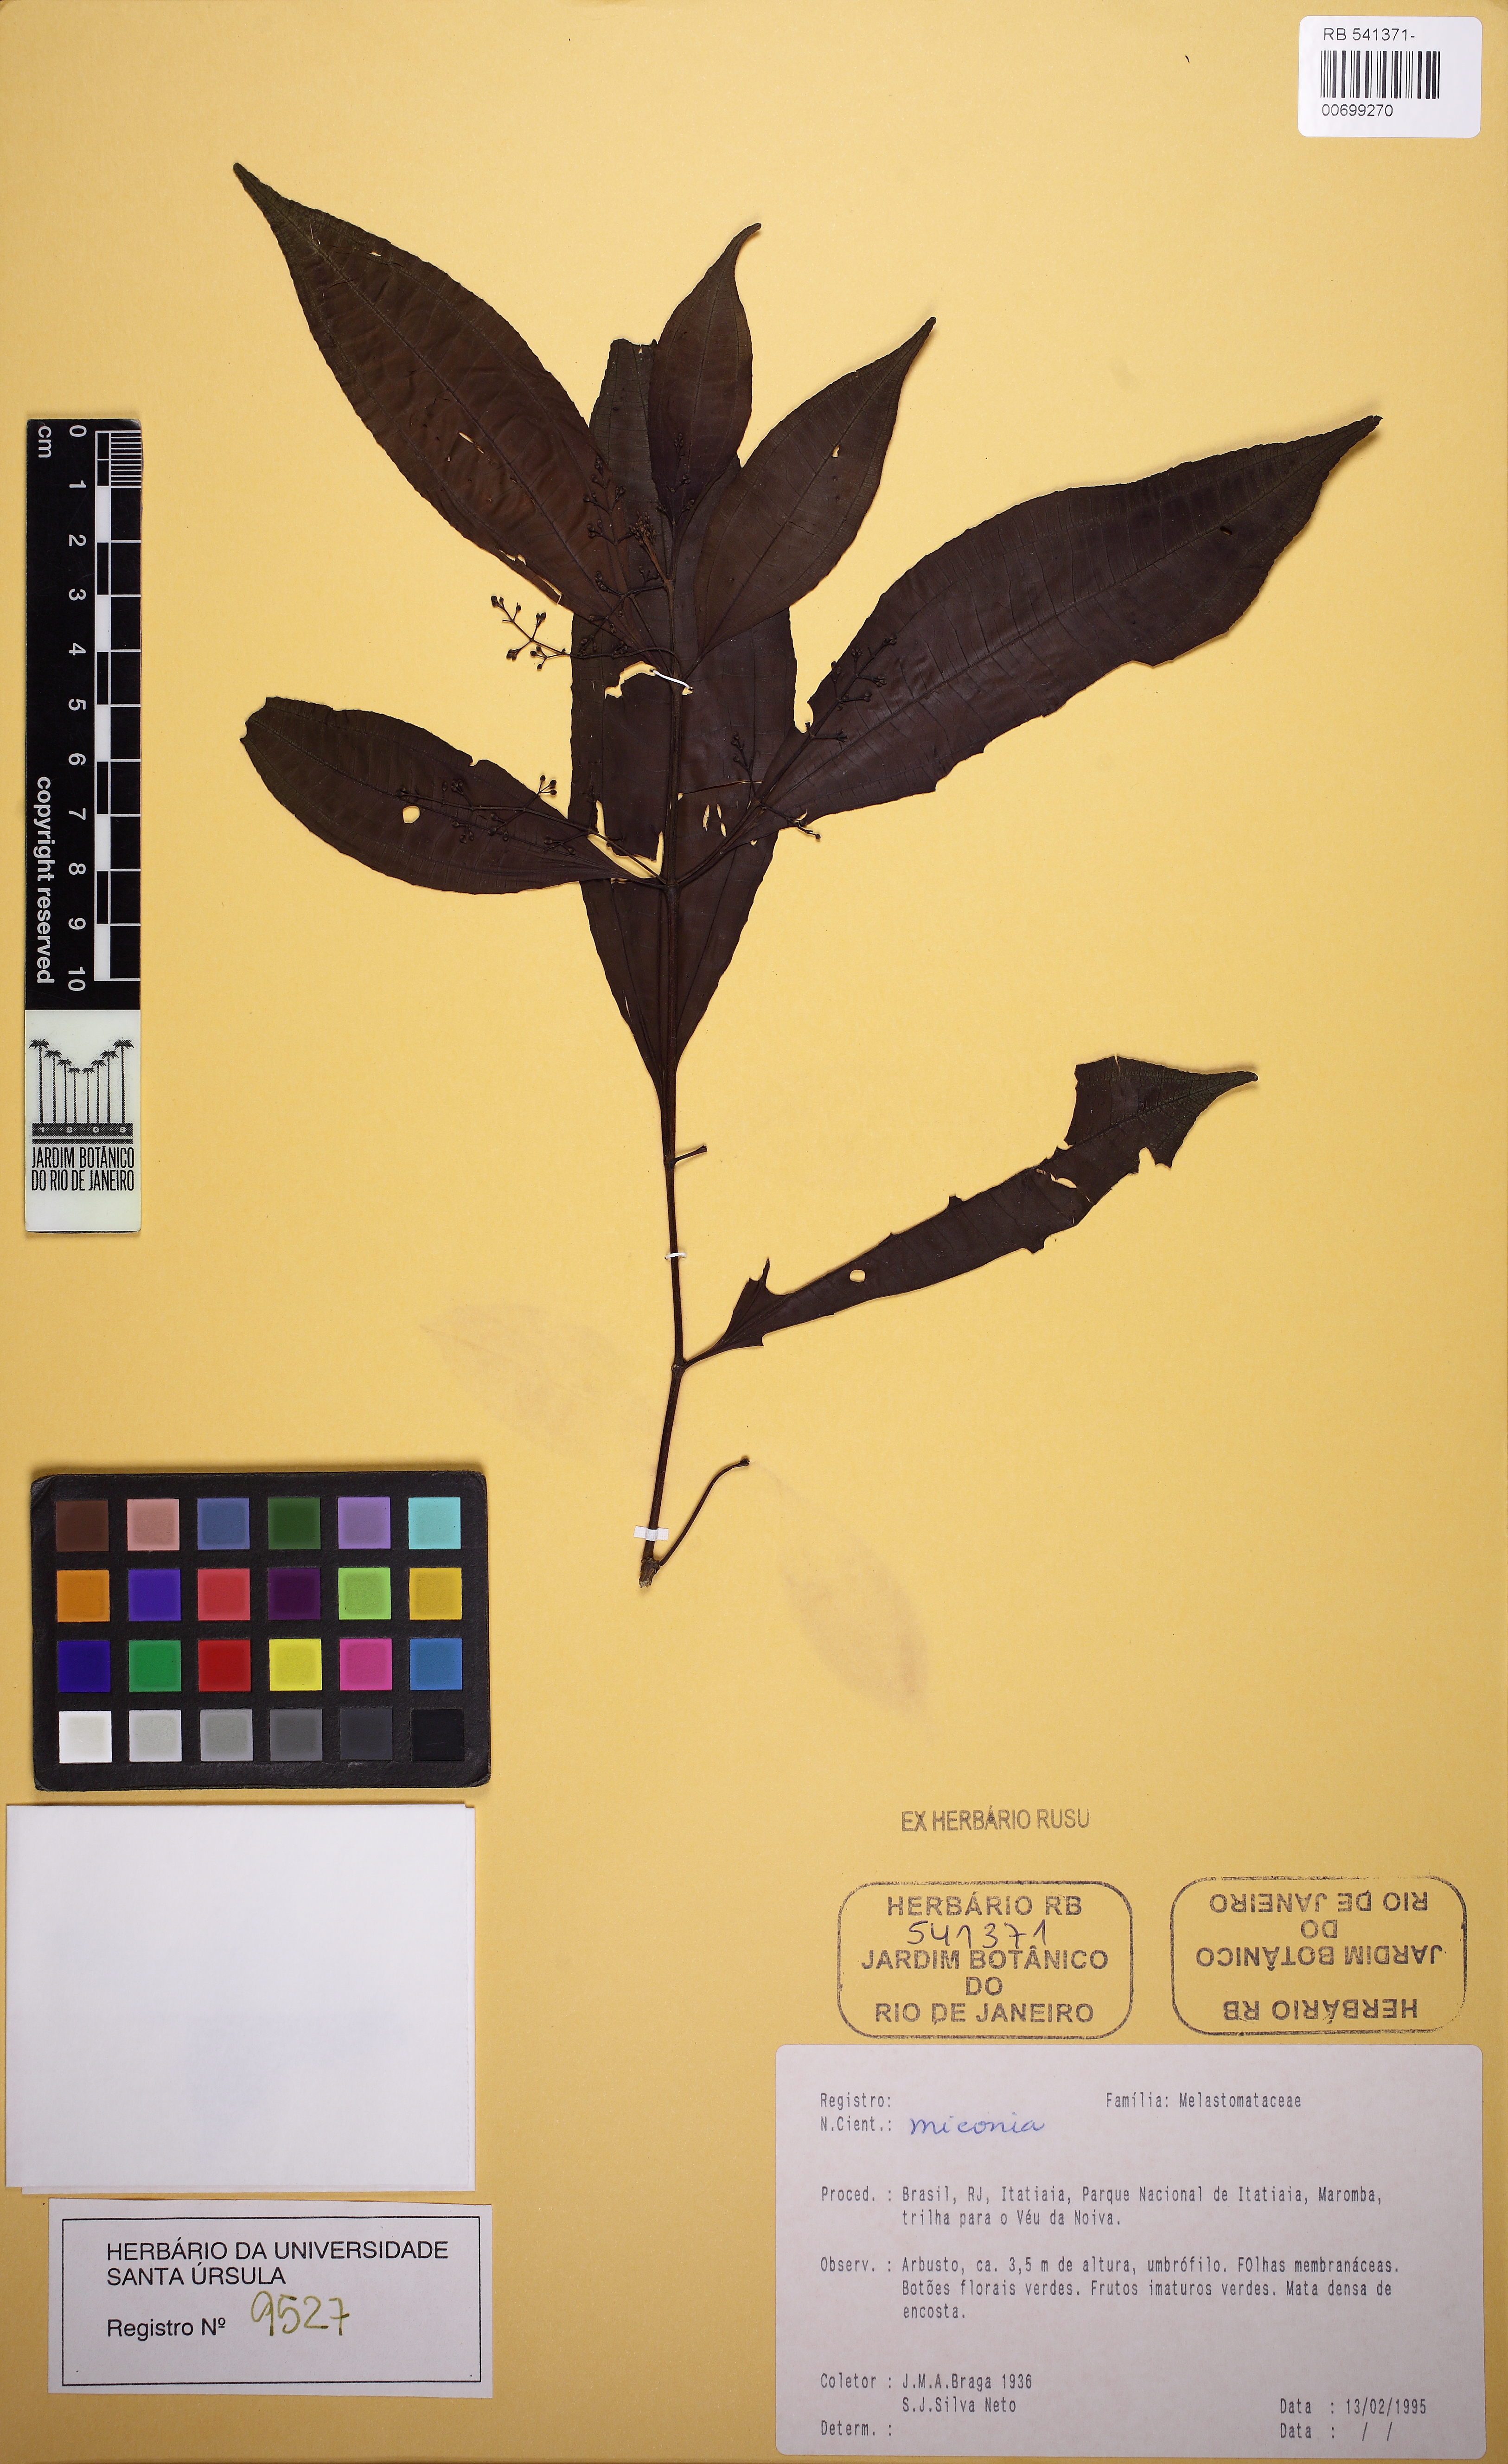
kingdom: Plantae
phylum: Tracheophyta
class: Magnoliopsida
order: Myrtales
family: Melastomataceae
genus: Miconia
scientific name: Miconia latecrenata
